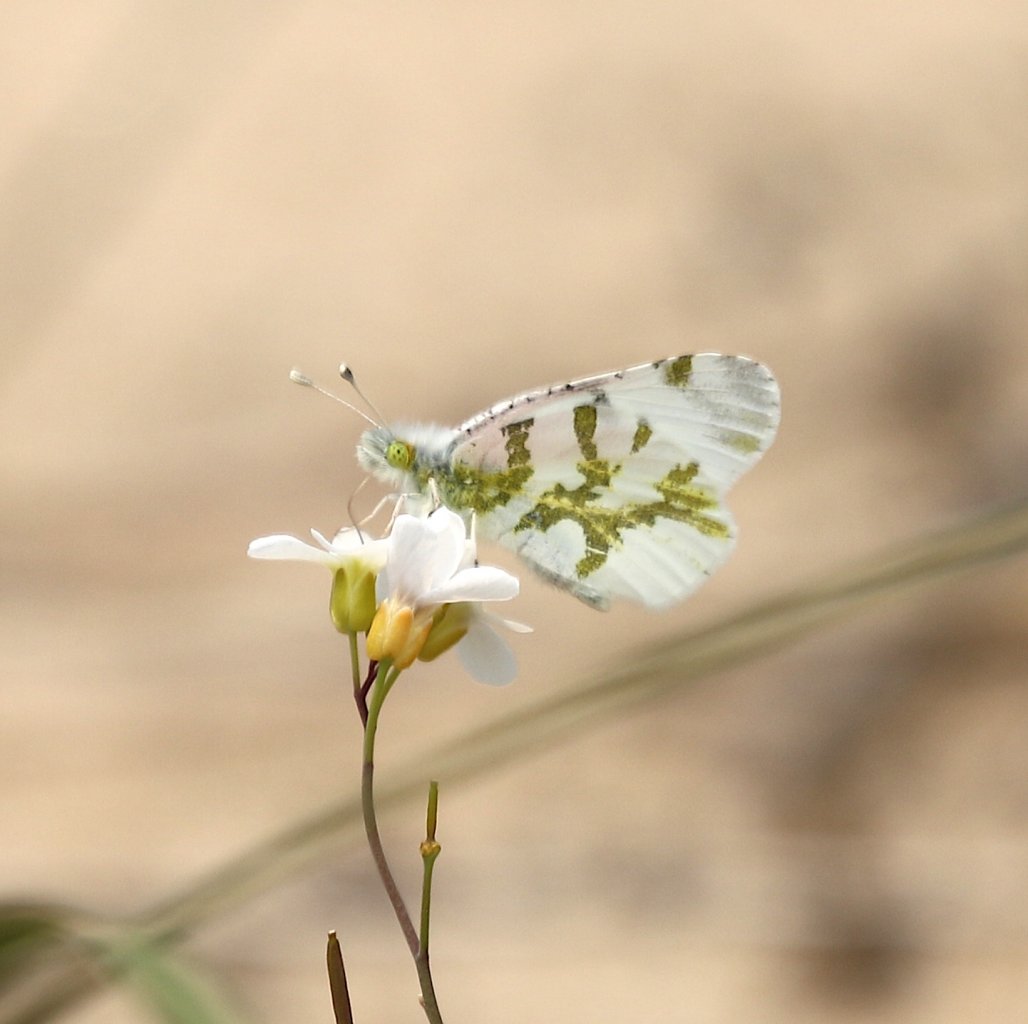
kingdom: Animalia
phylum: Arthropoda
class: Insecta
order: Lepidoptera
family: Pieridae
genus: Euchloe
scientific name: Euchloe olympia
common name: Olympia Marble
